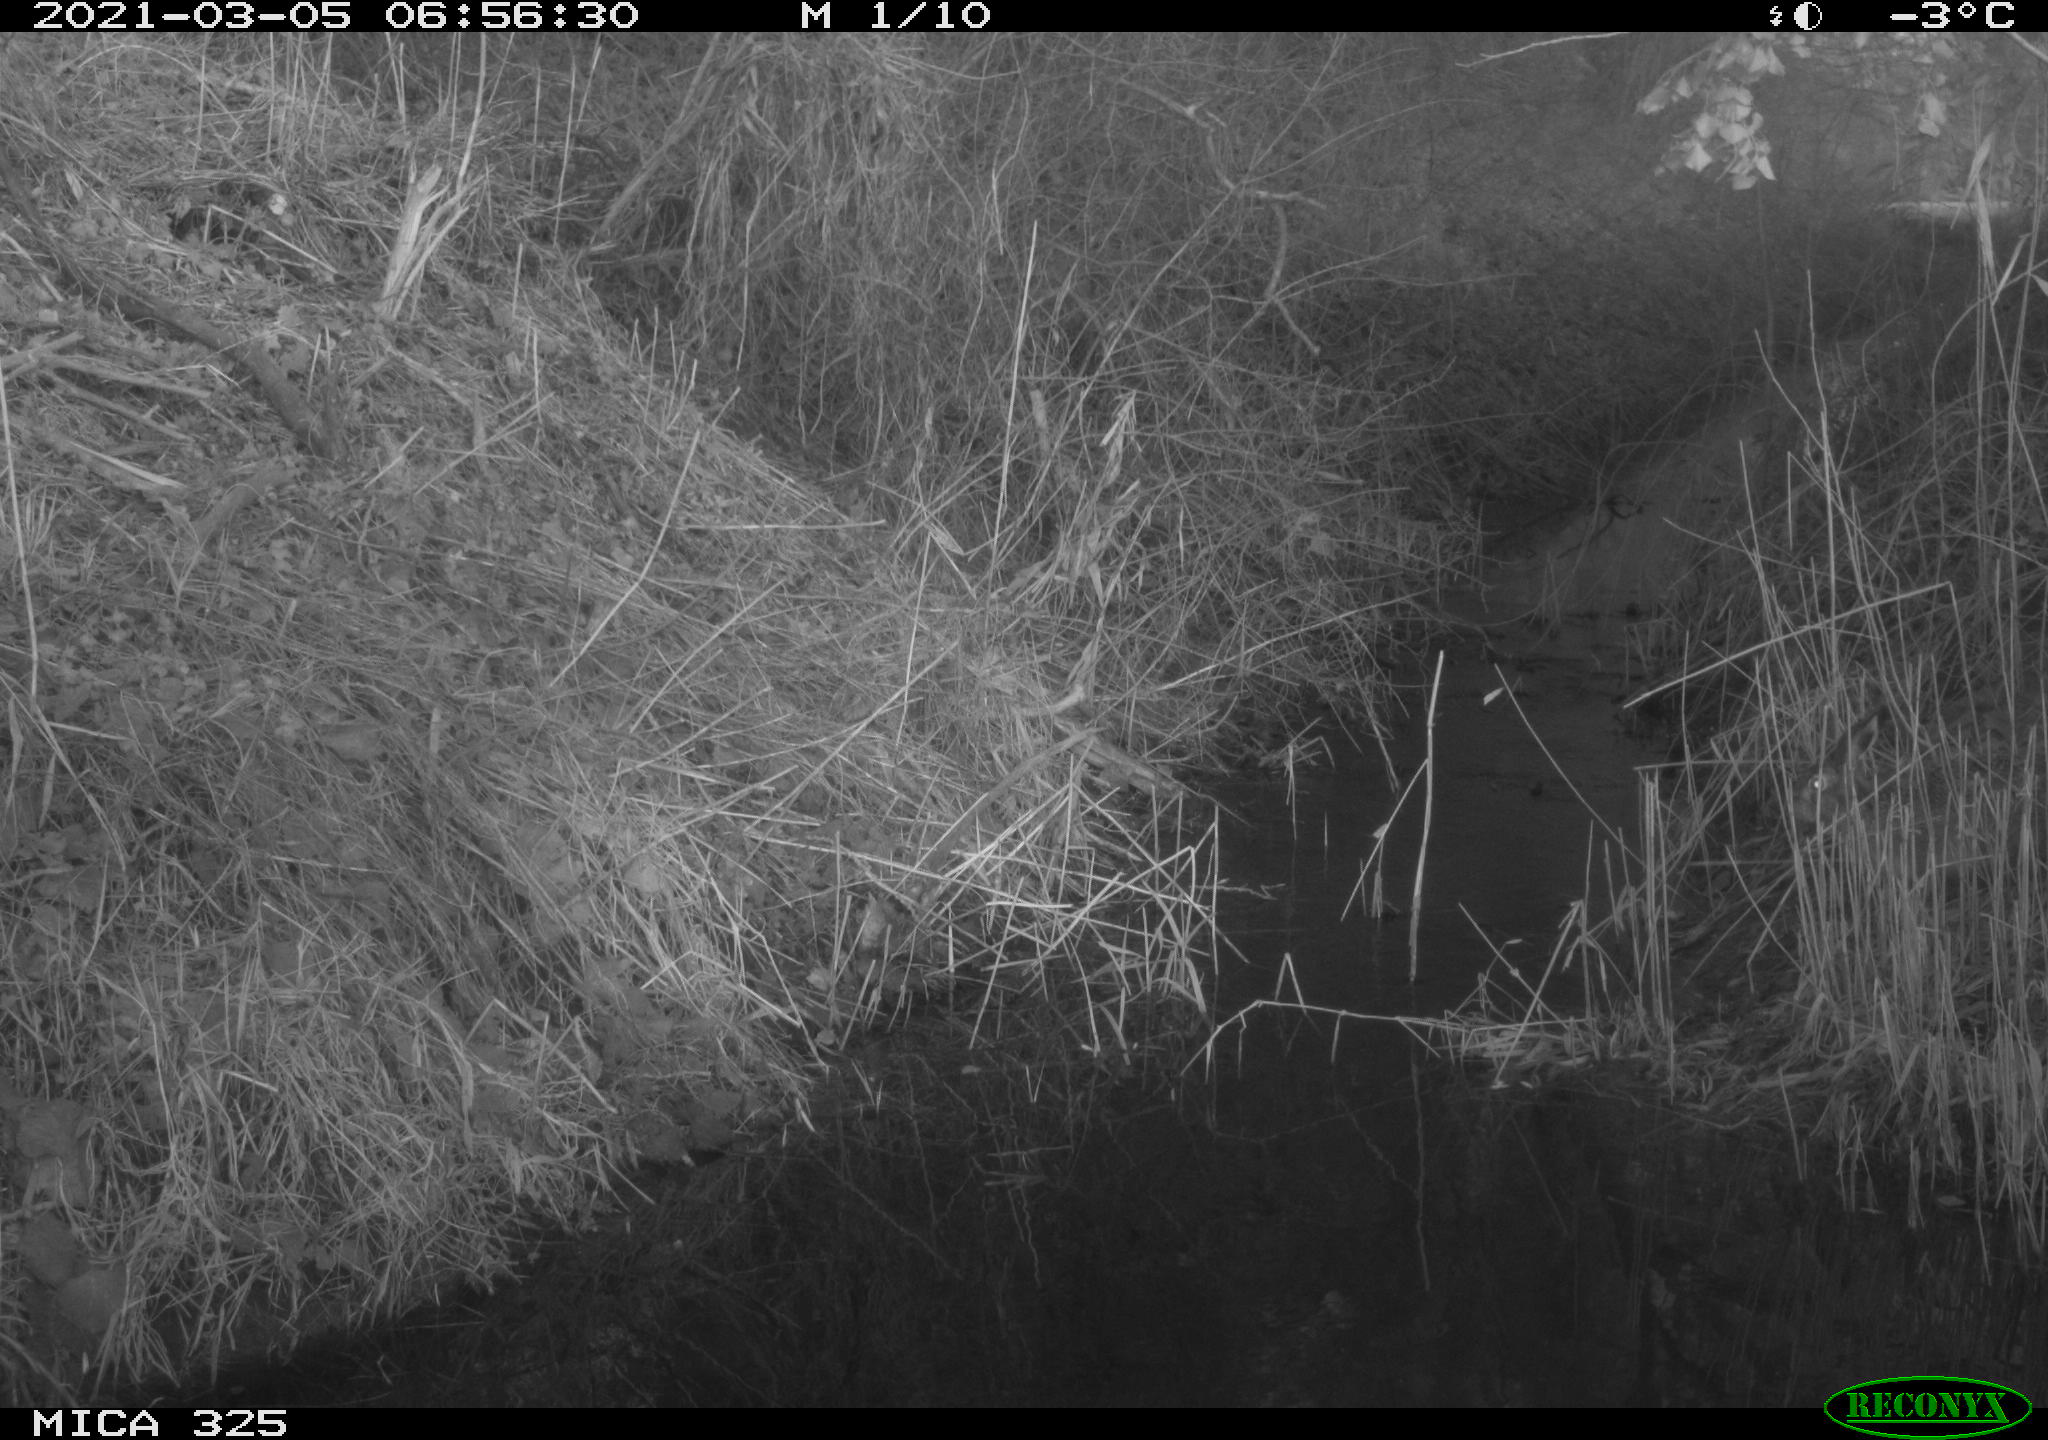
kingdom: Animalia
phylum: Chordata
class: Mammalia
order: Lagomorpha
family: Leporidae
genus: Lepus
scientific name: Lepus europaeus
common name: European hare
